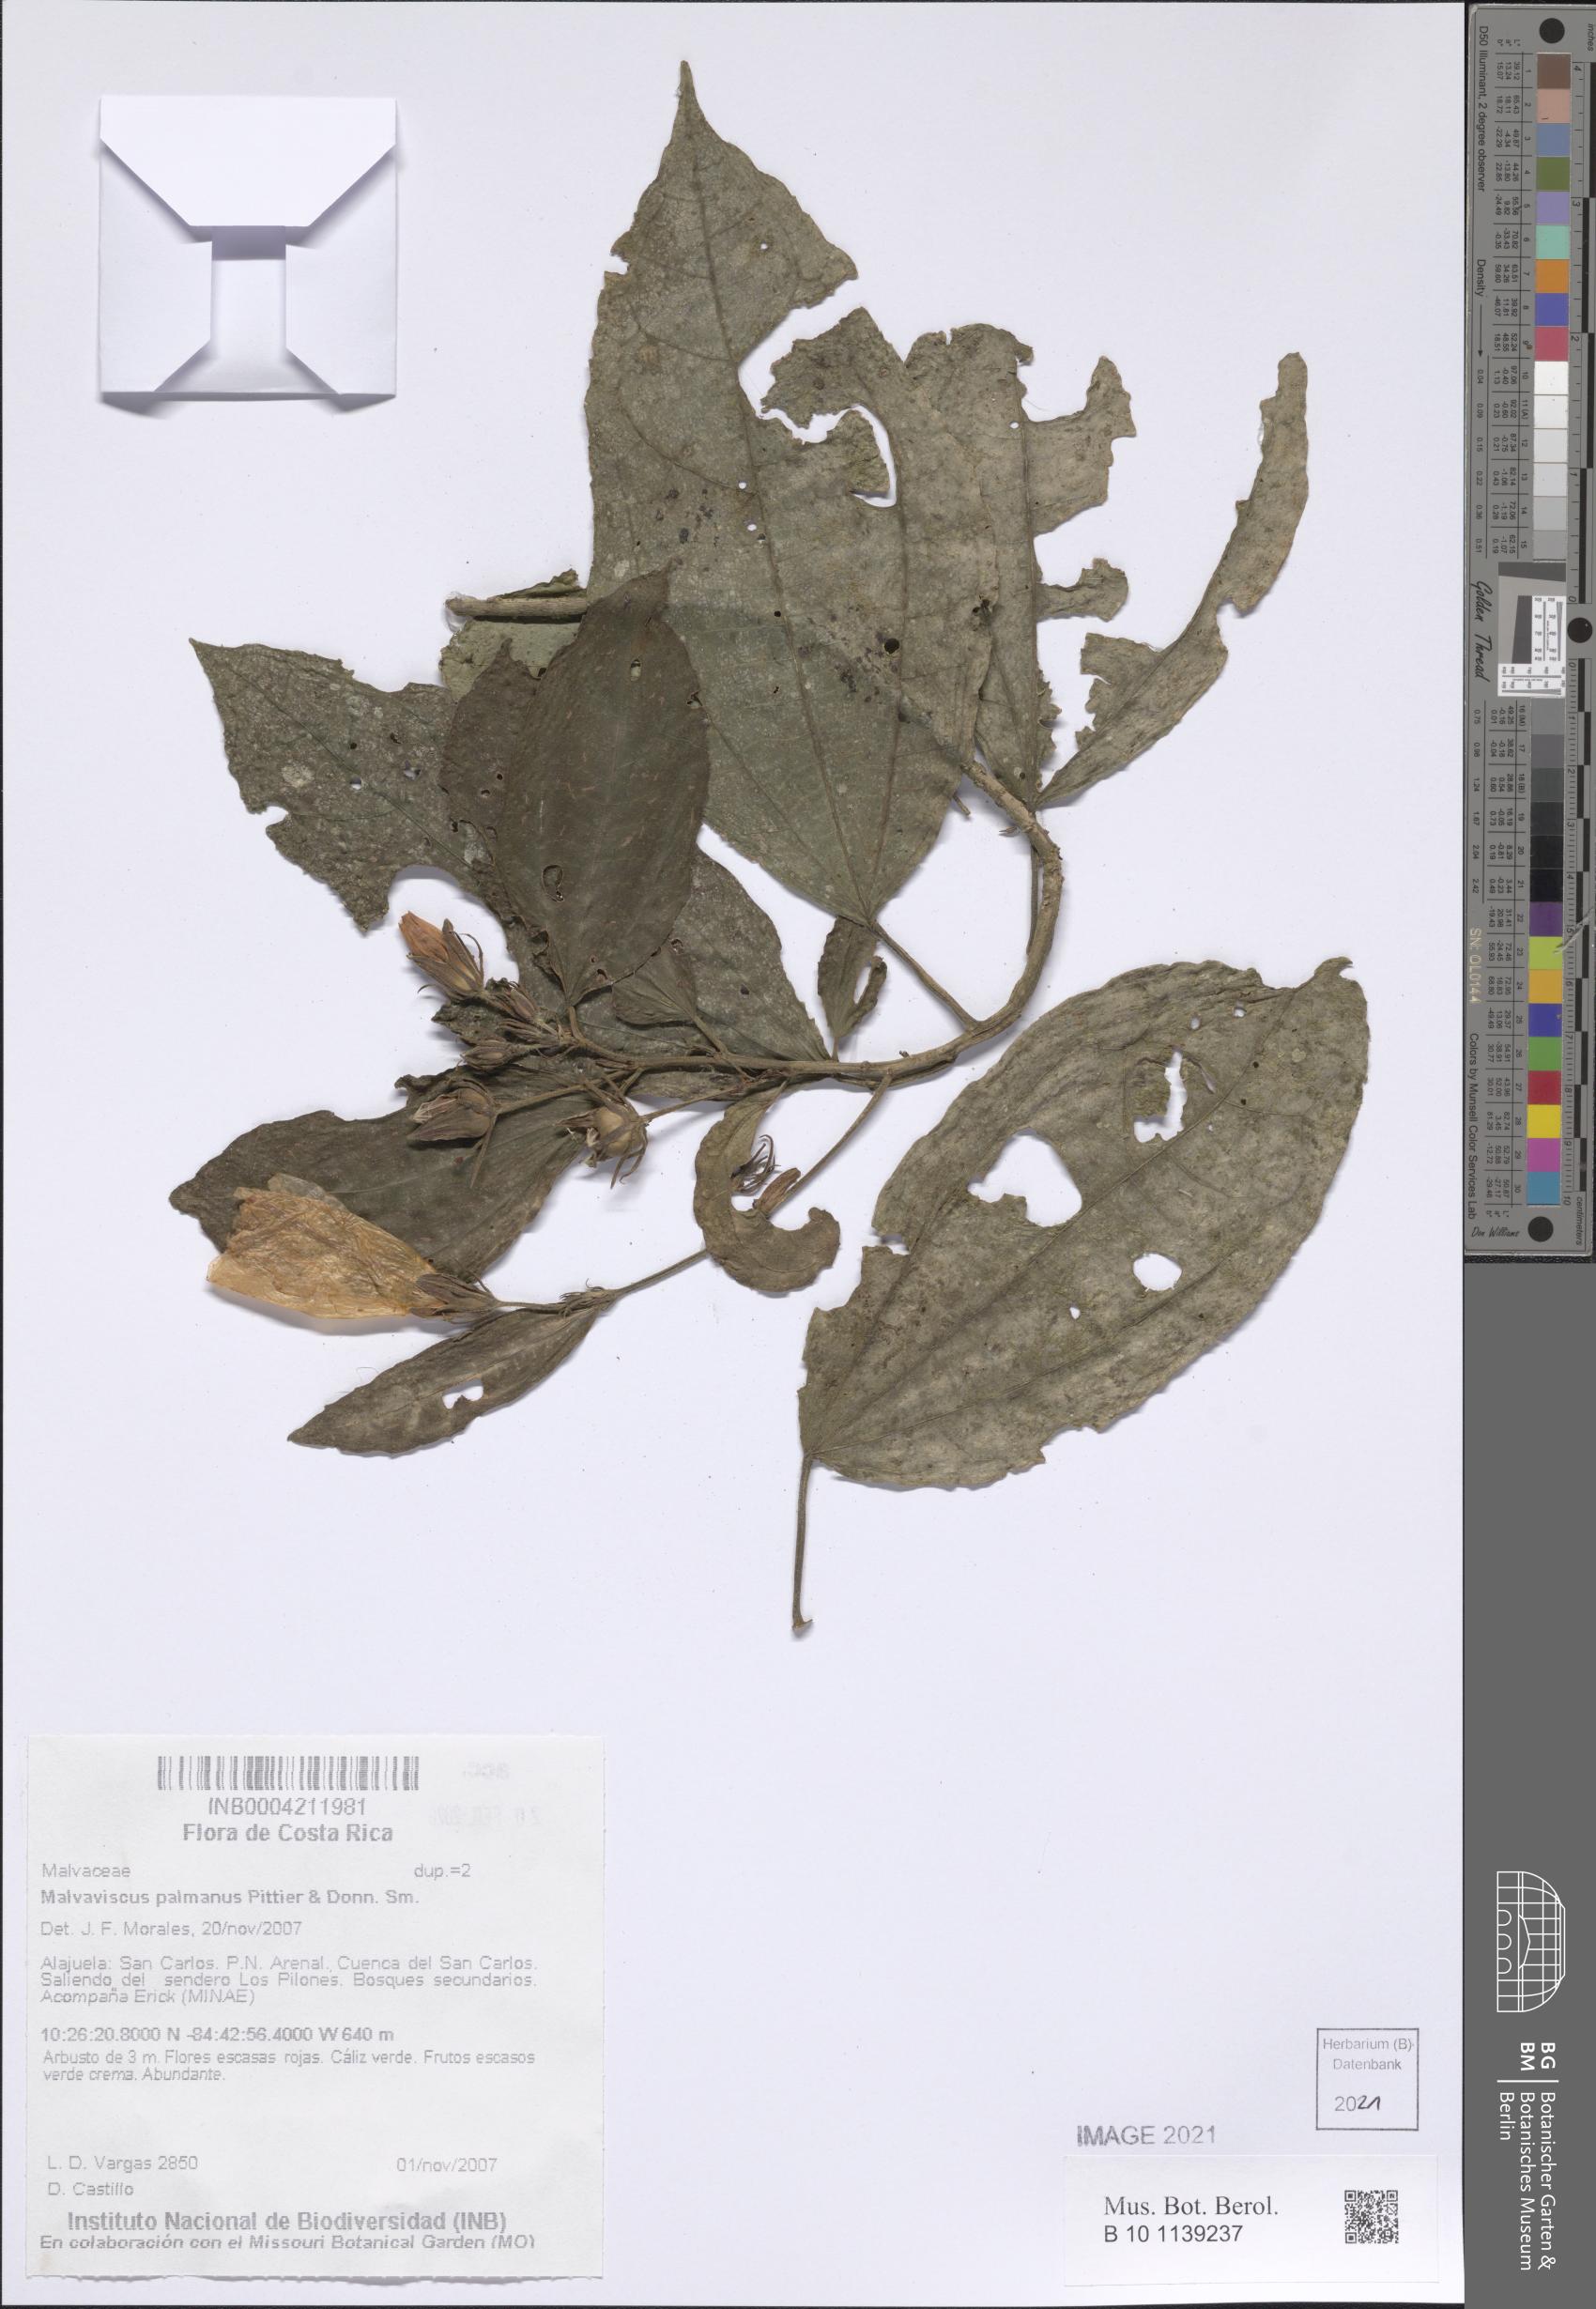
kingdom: Plantae
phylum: Tracheophyta
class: Magnoliopsida
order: Malvales
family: Malvaceae
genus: Malvaviscus
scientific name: Malvaviscus palmanus
